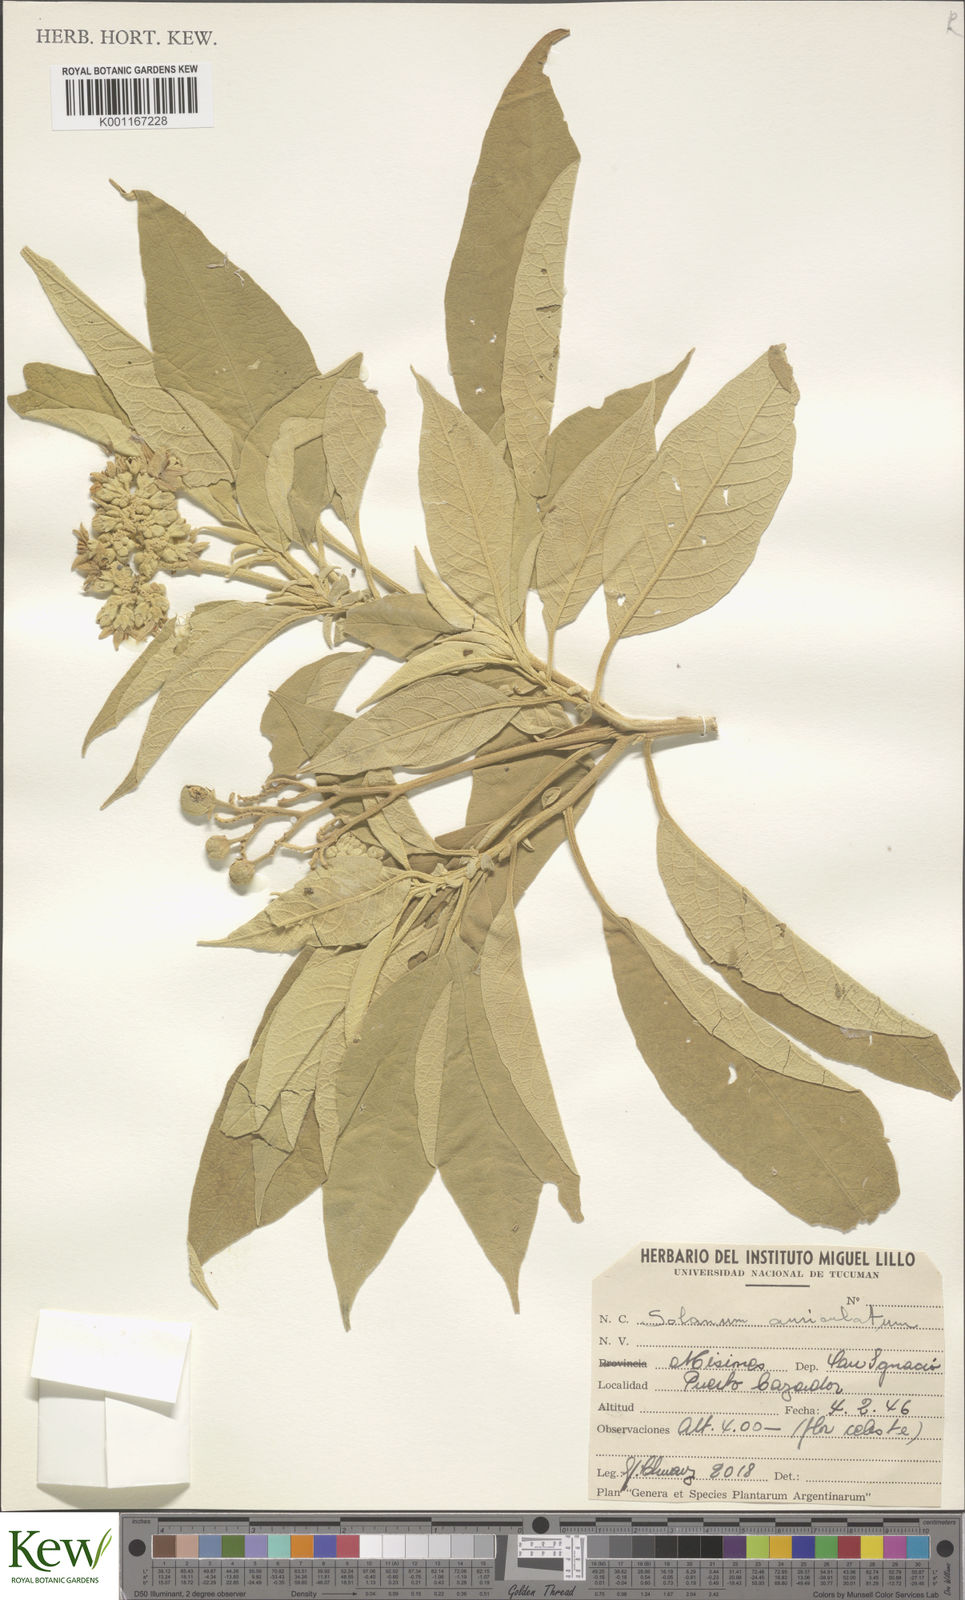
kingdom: Plantae
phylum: Tracheophyta
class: Magnoliopsida
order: Solanales
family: Solanaceae
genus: Solanum
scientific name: Solanum mauritianum
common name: Earleaf nightshade
